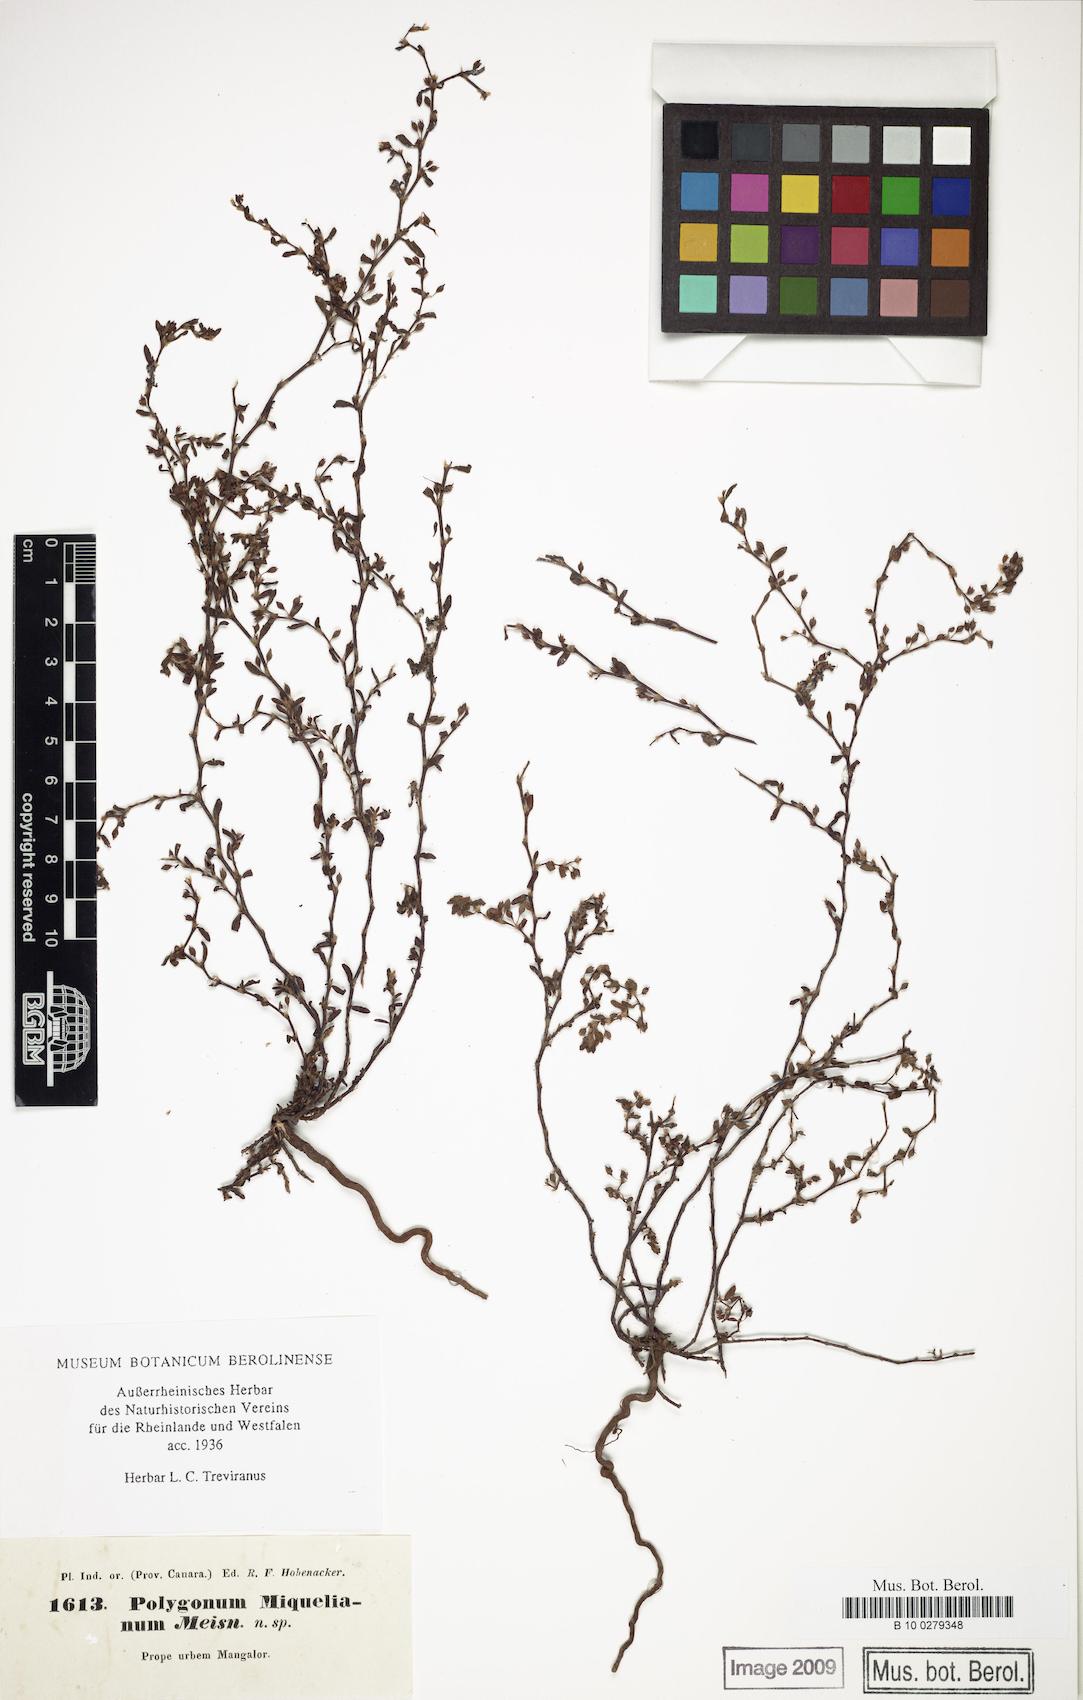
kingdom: Plantae
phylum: Tracheophyta
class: Magnoliopsida
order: Caryophyllales
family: Polygonaceae
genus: Polygonum
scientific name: Polygonum plebeium
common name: Common knotweed
